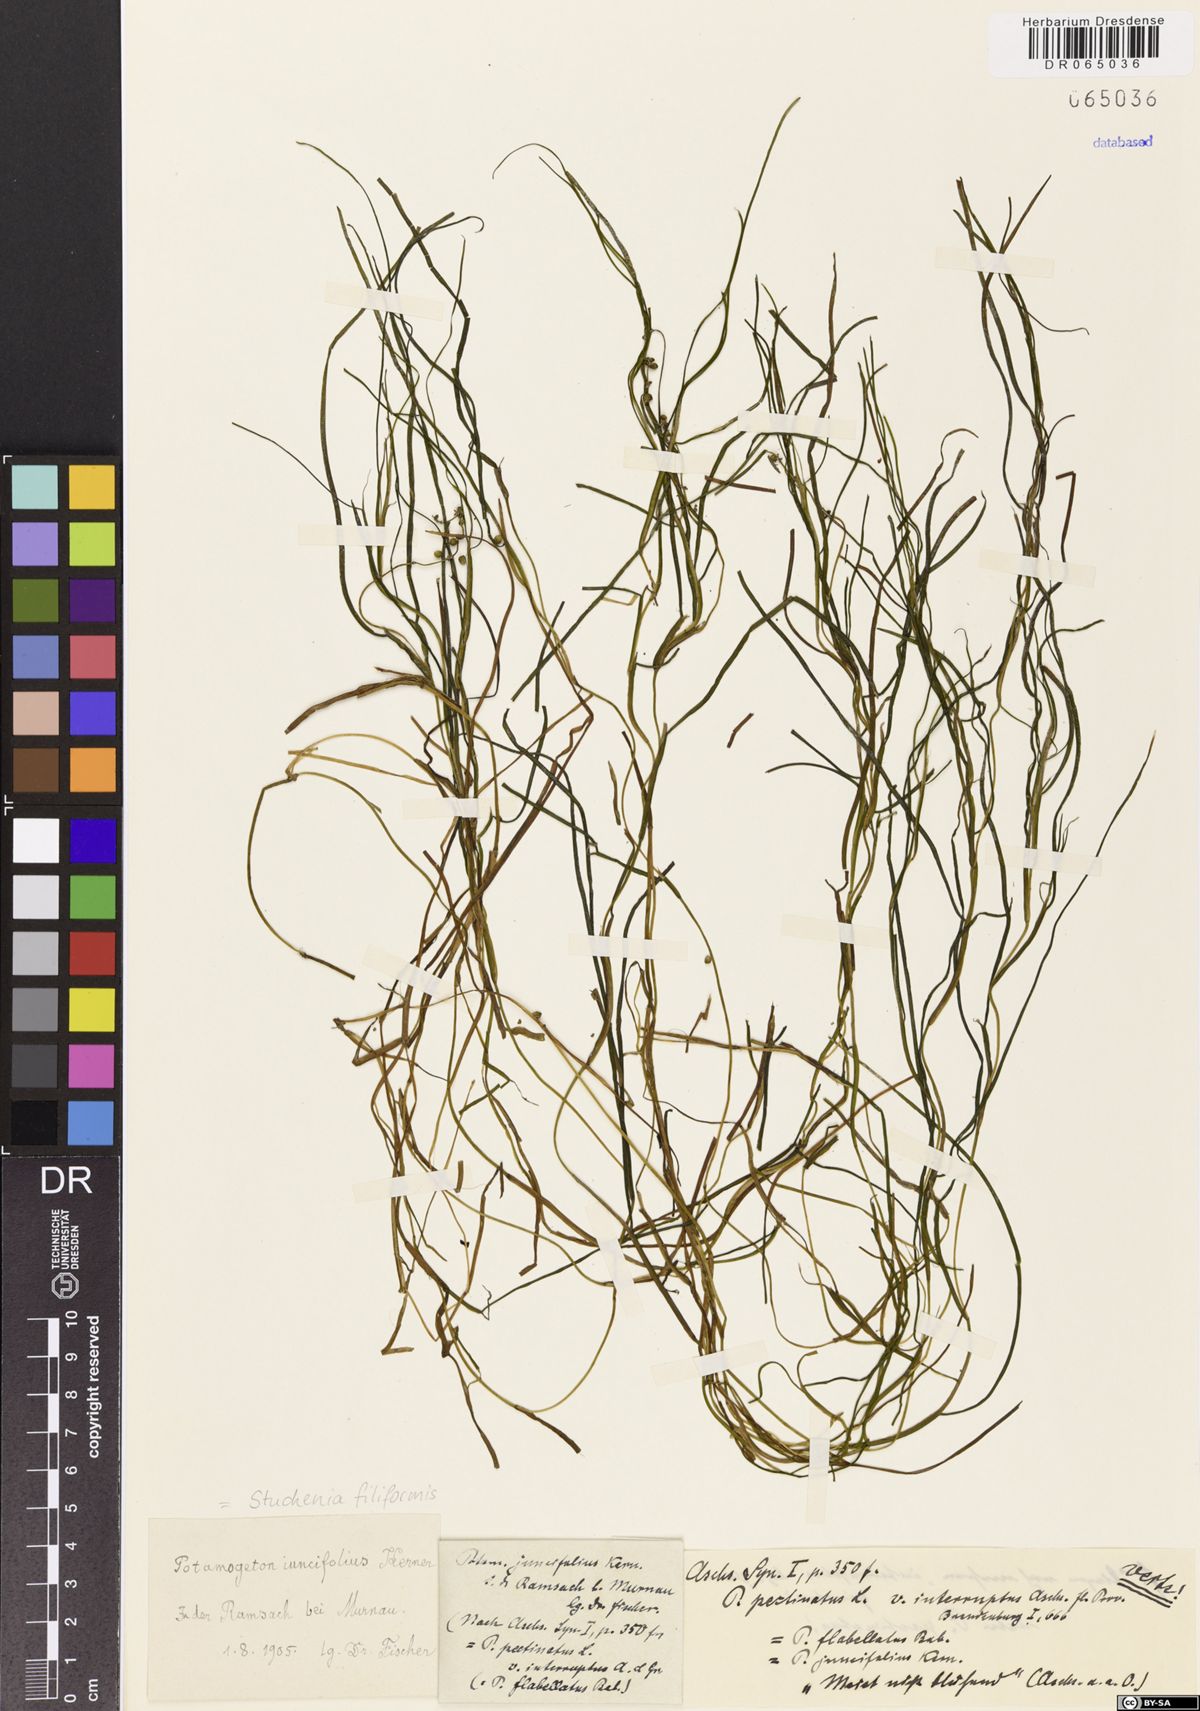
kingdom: Plantae
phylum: Tracheophyta
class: Liliopsida
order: Alismatales
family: Potamogetonaceae
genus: Stuckenia
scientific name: Stuckenia filiformis
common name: Alpine thread-leaved pondweed
